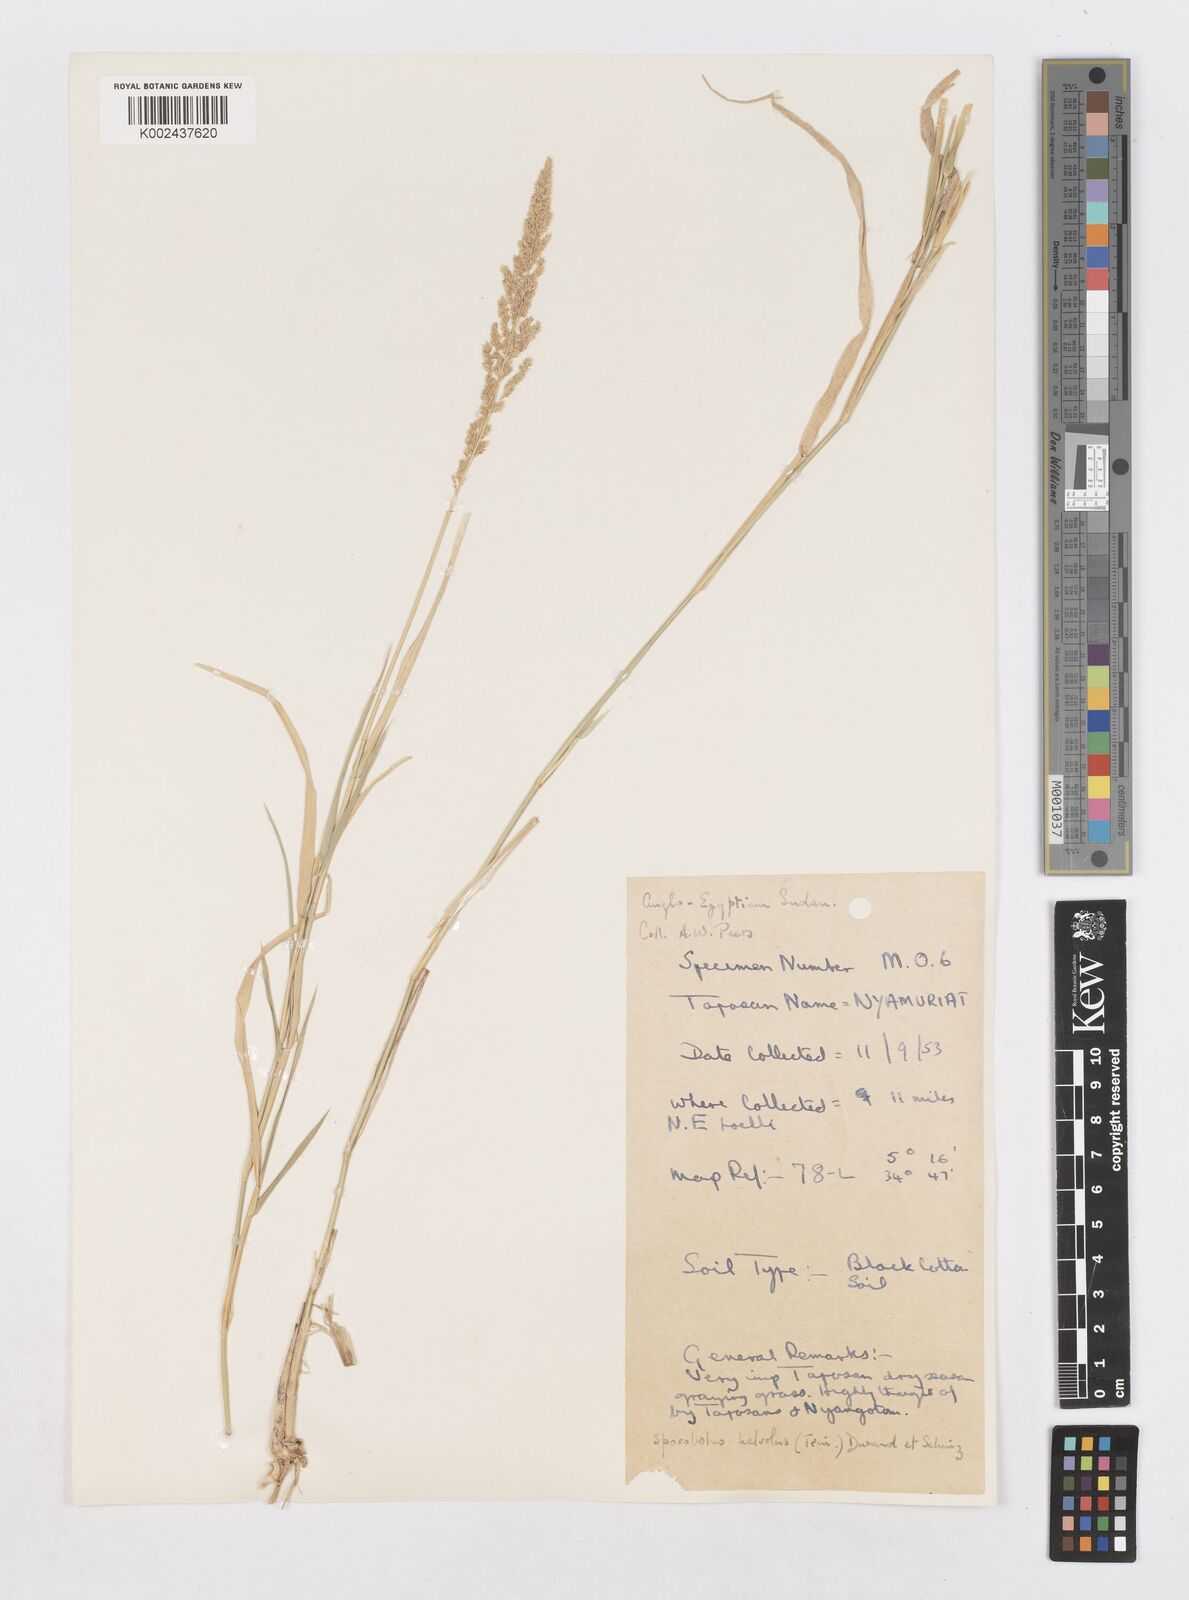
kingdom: Plantae
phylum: Tracheophyta
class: Liliopsida
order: Poales
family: Poaceae
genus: Sporobolus
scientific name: Sporobolus helvolus
